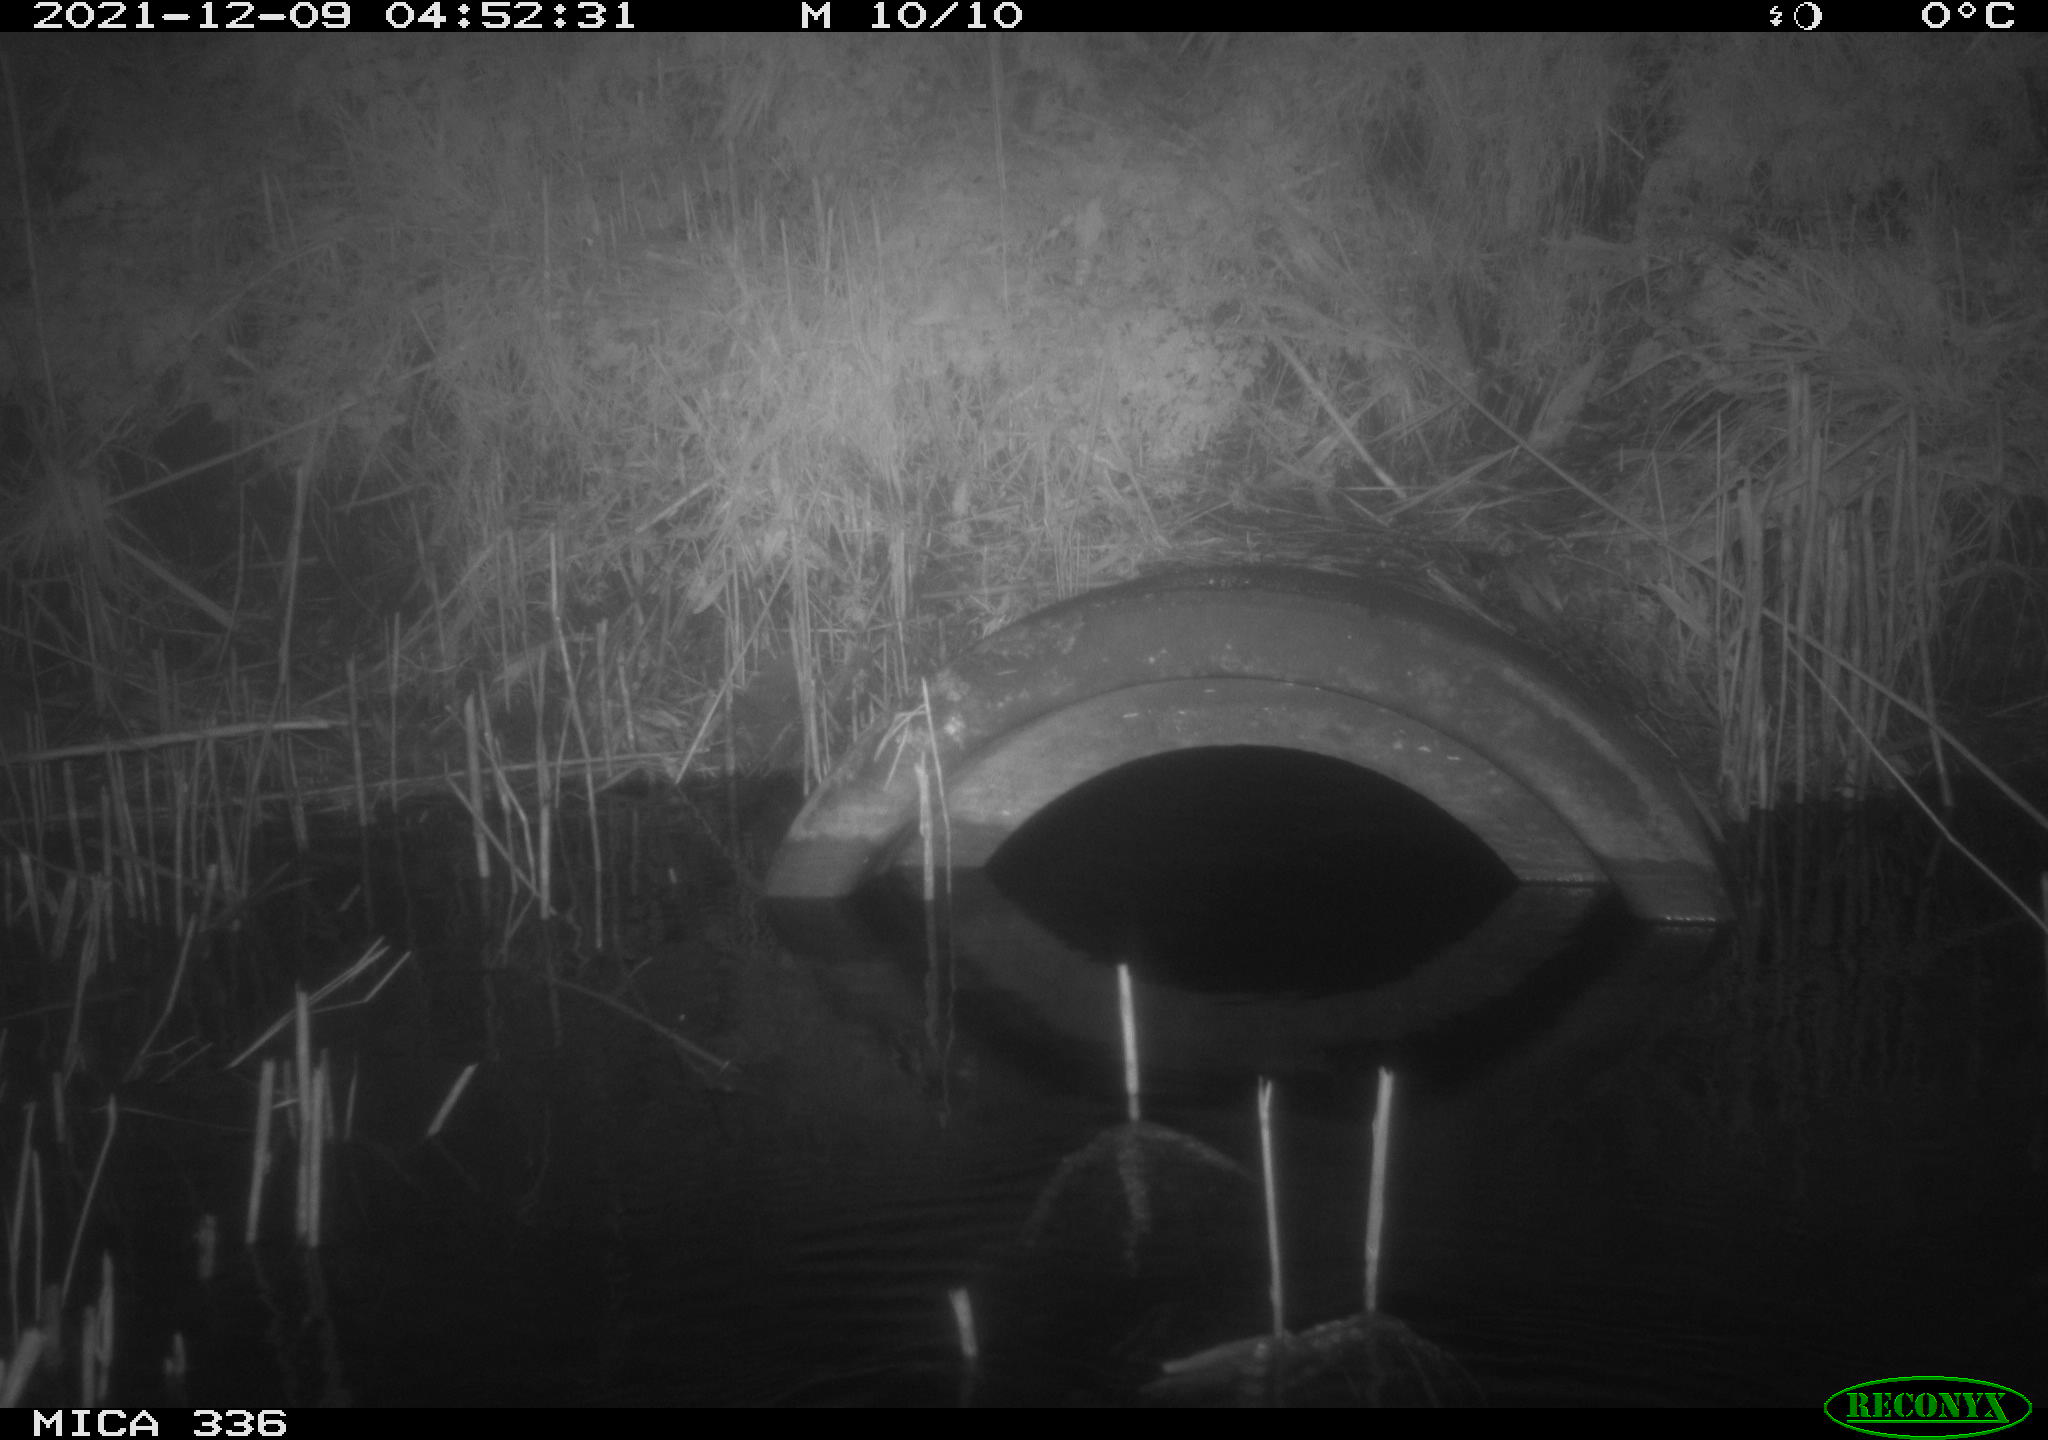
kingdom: Animalia
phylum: Chordata
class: Mammalia
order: Rodentia
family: Muridae
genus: Rattus
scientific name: Rattus norvegicus
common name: Brown rat
